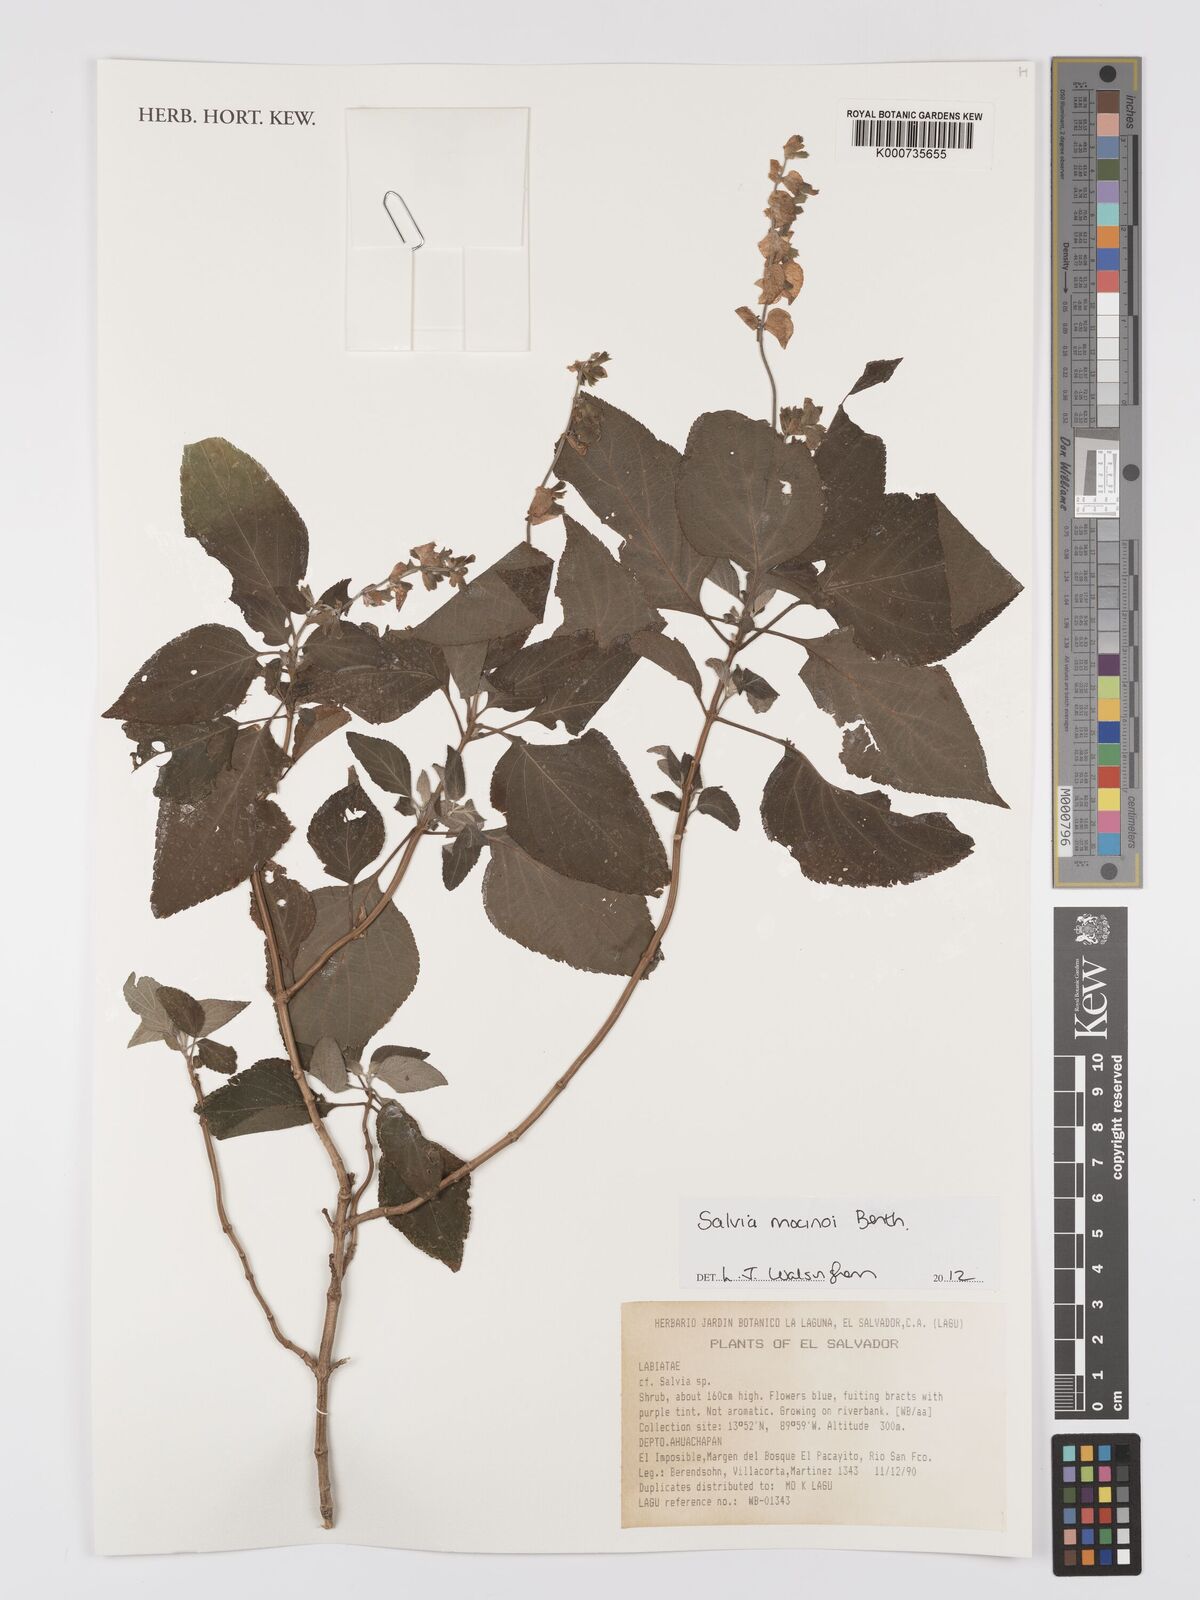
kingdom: Plantae
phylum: Tracheophyta
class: Magnoliopsida
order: Lamiales
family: Lamiaceae
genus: Salvia
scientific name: Salvia mocinoi
